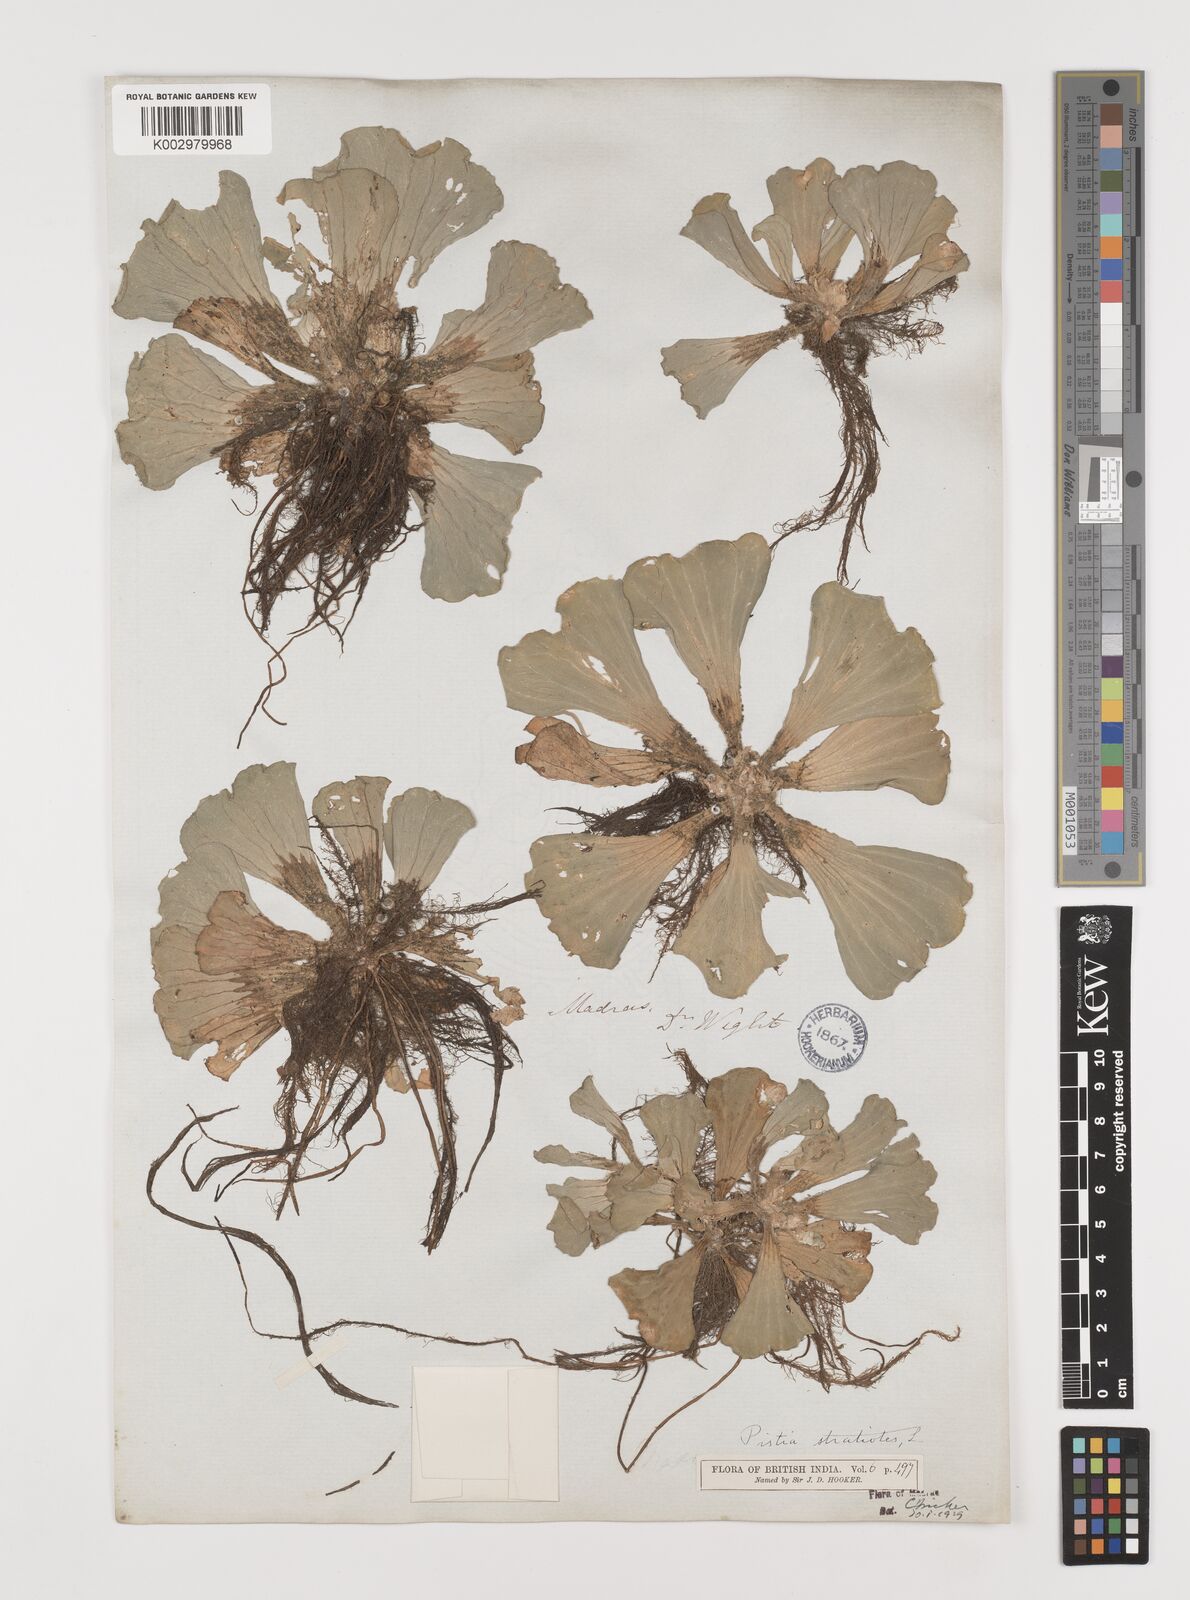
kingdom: Plantae
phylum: Tracheophyta
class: Liliopsida
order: Alismatales
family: Araceae
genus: Pistia
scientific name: Pistia stratiotes
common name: Water lettuce
